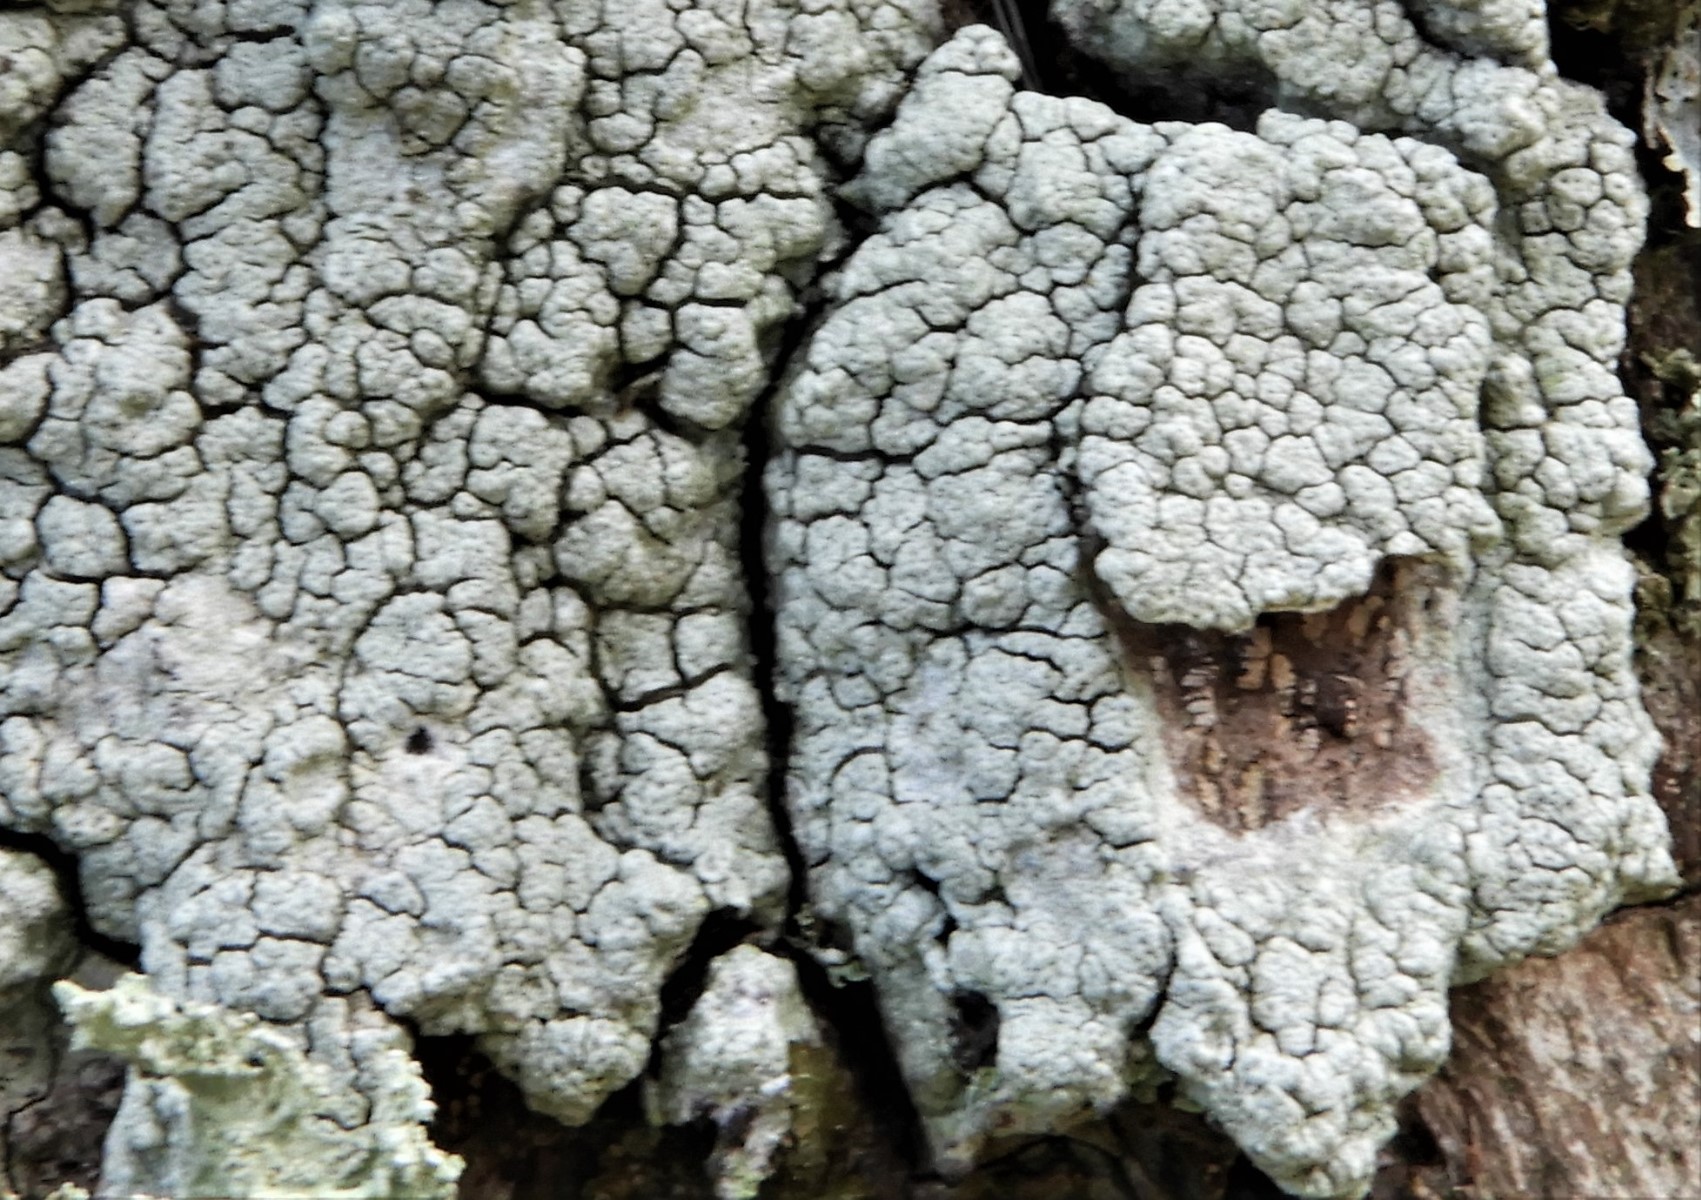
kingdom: Fungi
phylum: Ascomycota
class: Lecanoromycetes
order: Pertusariales
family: Pertusariaceae
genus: Pertusaria
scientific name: Pertusaria pertusa
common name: almindelig prikvortelav
